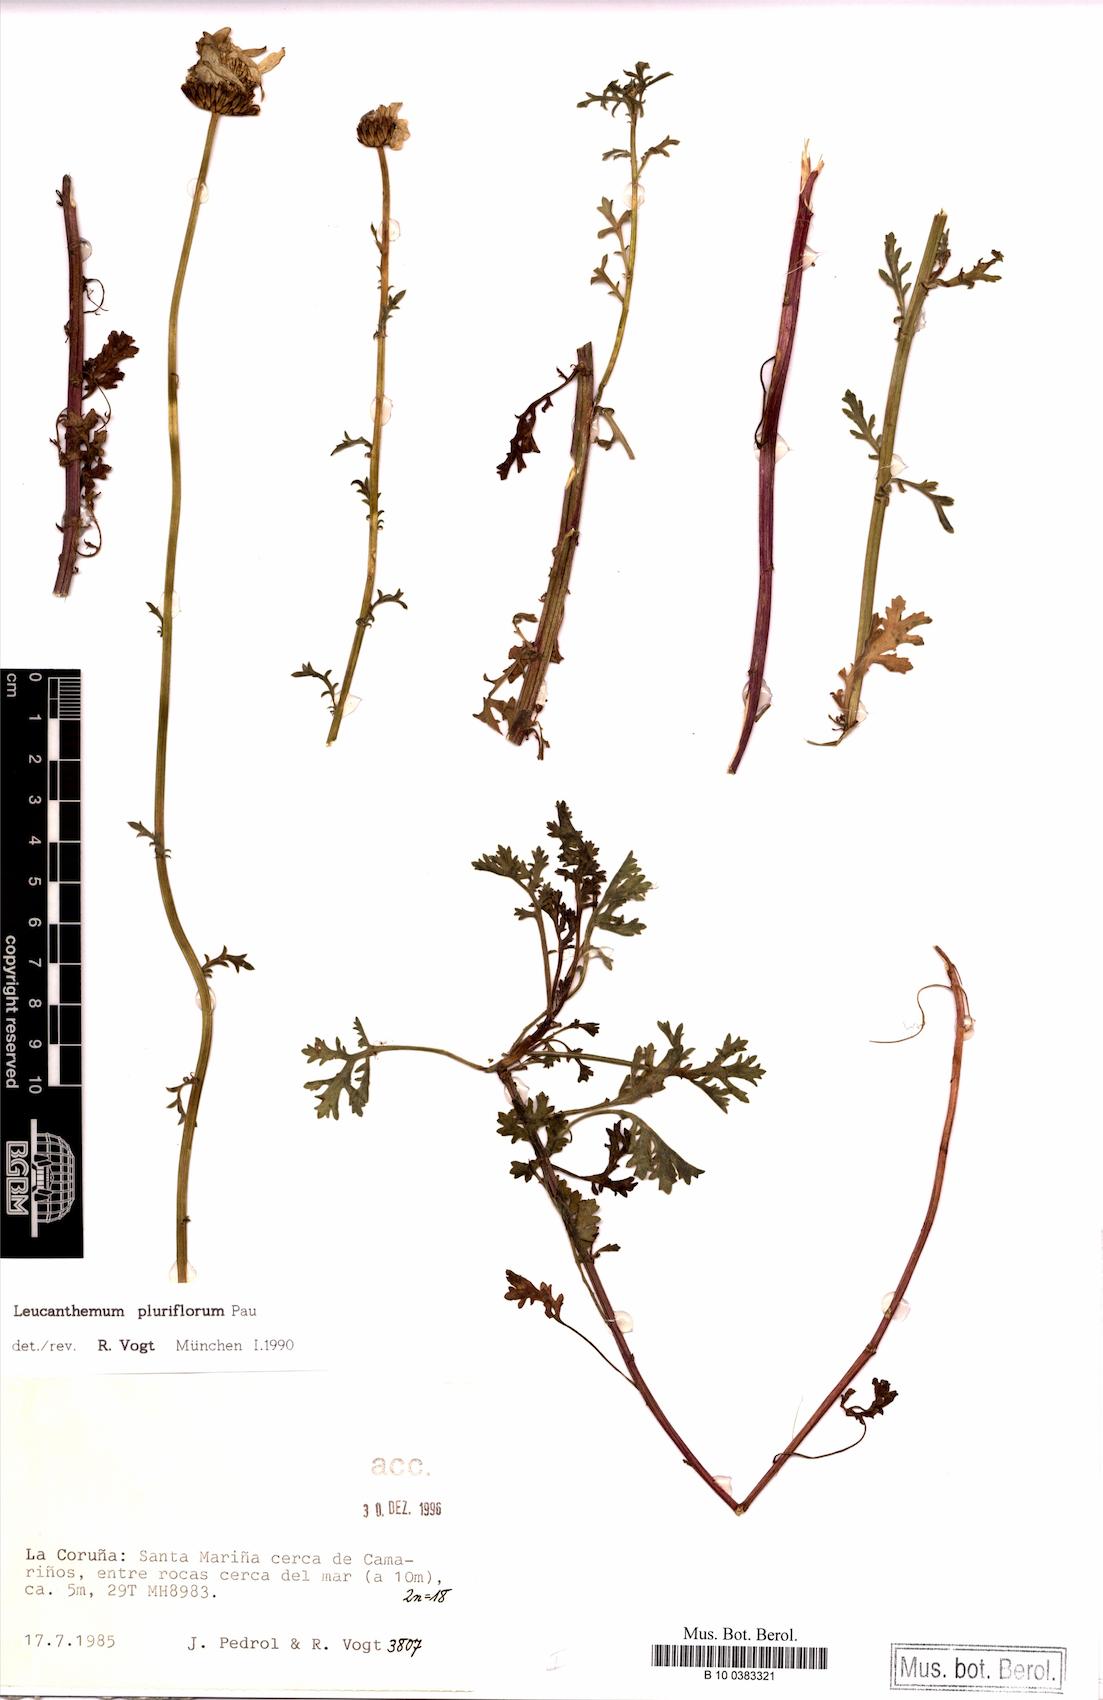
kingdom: Plantae
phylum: Tracheophyta
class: Magnoliopsida
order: Asterales
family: Asteraceae
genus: Leucanthemum
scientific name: Leucanthemum pluriflorum
